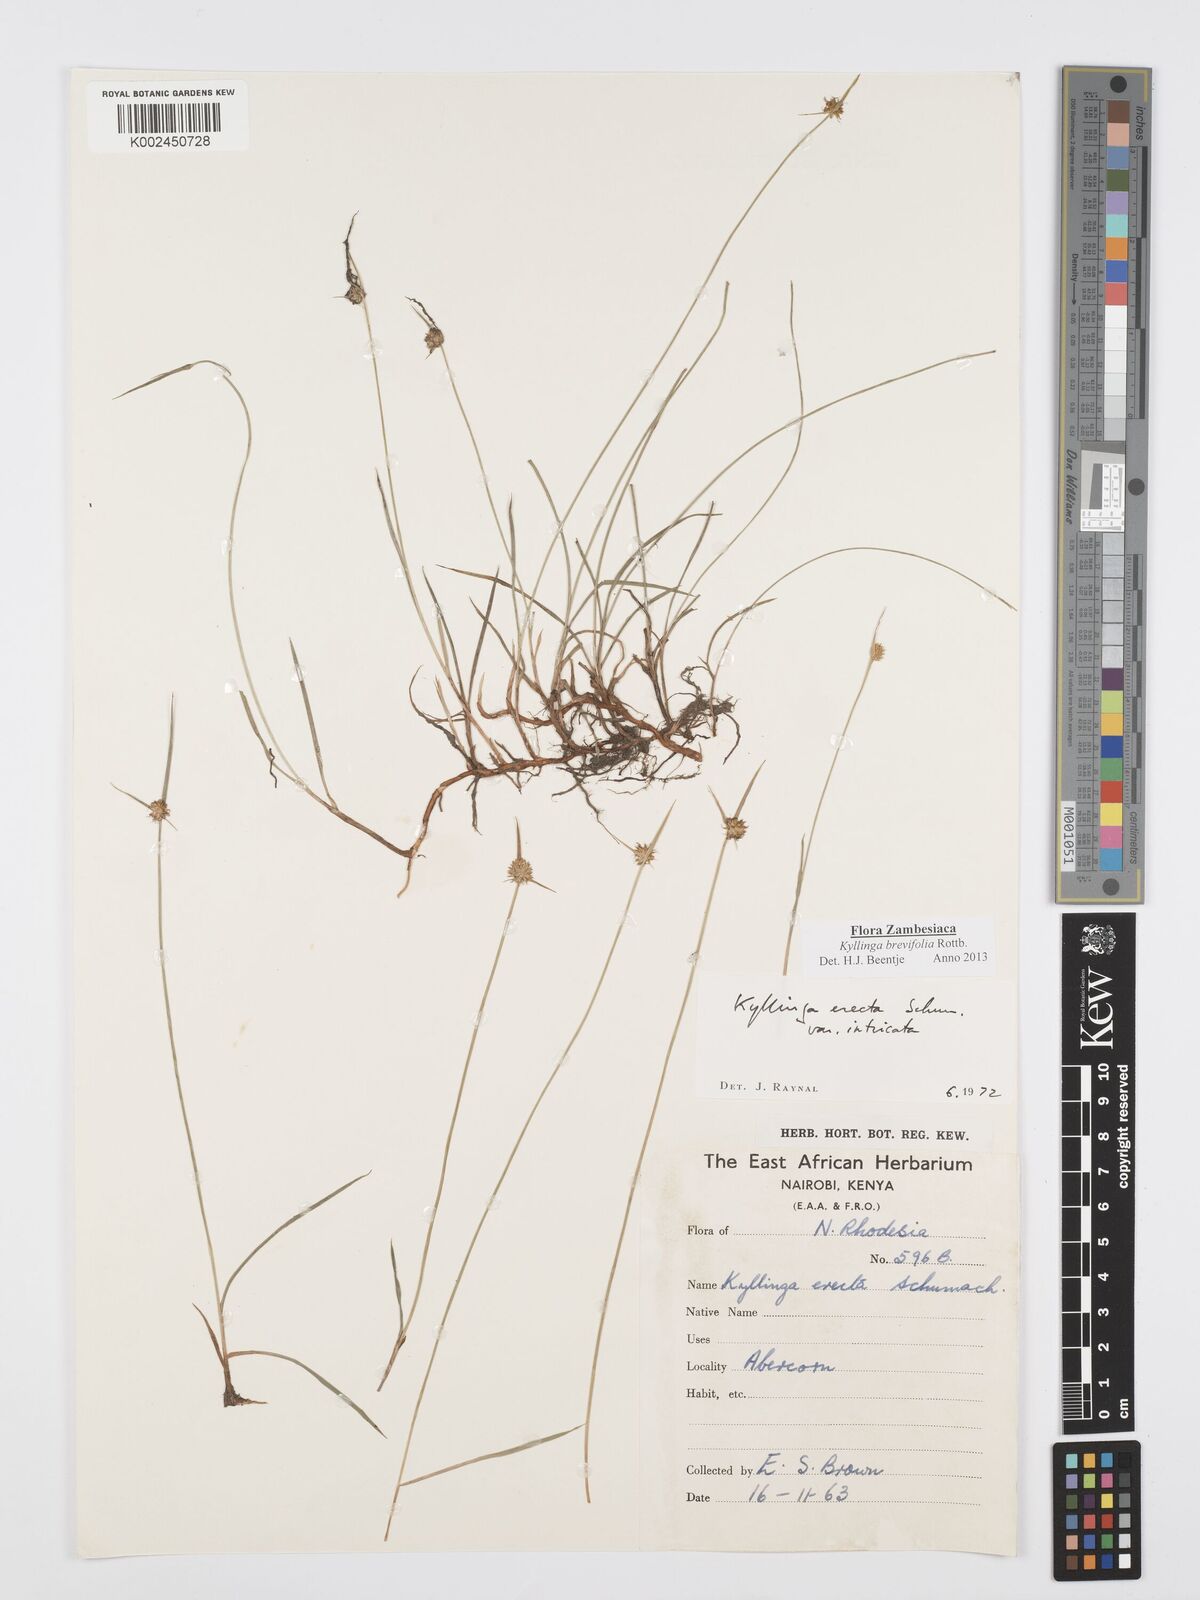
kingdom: Plantae
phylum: Tracheophyta
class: Liliopsida
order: Poales
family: Cyperaceae
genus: Cyperus
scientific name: Cyperus brevifolius
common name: Globe kyllinga
